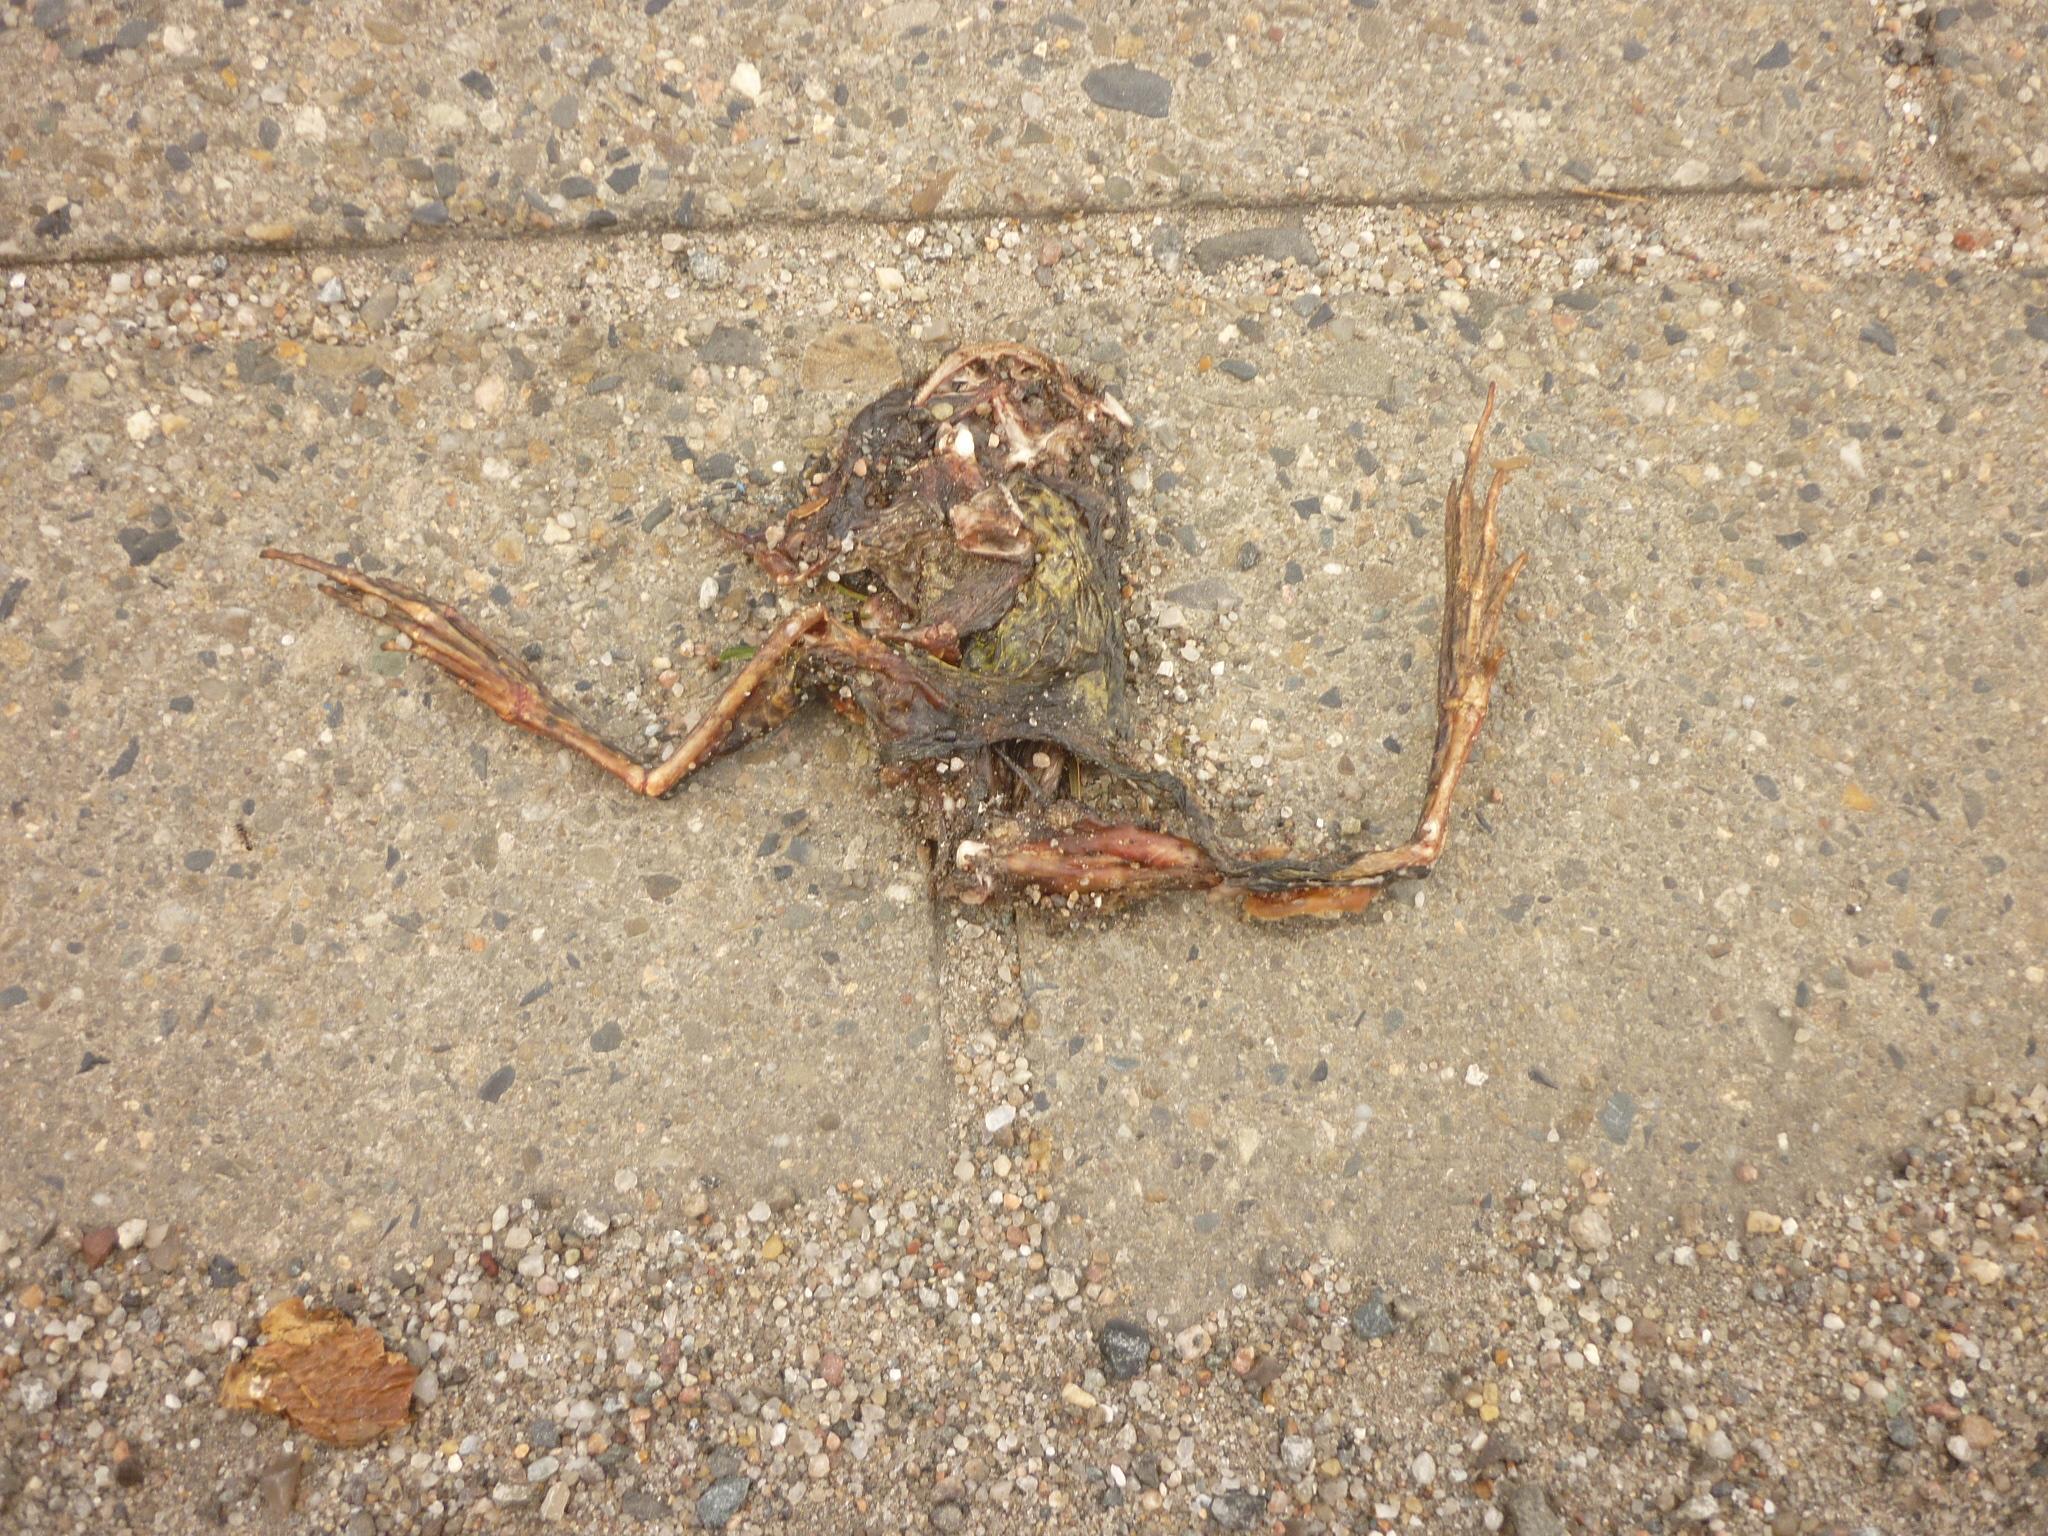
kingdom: Animalia
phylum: Chordata
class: Amphibia
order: Anura
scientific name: Anura
